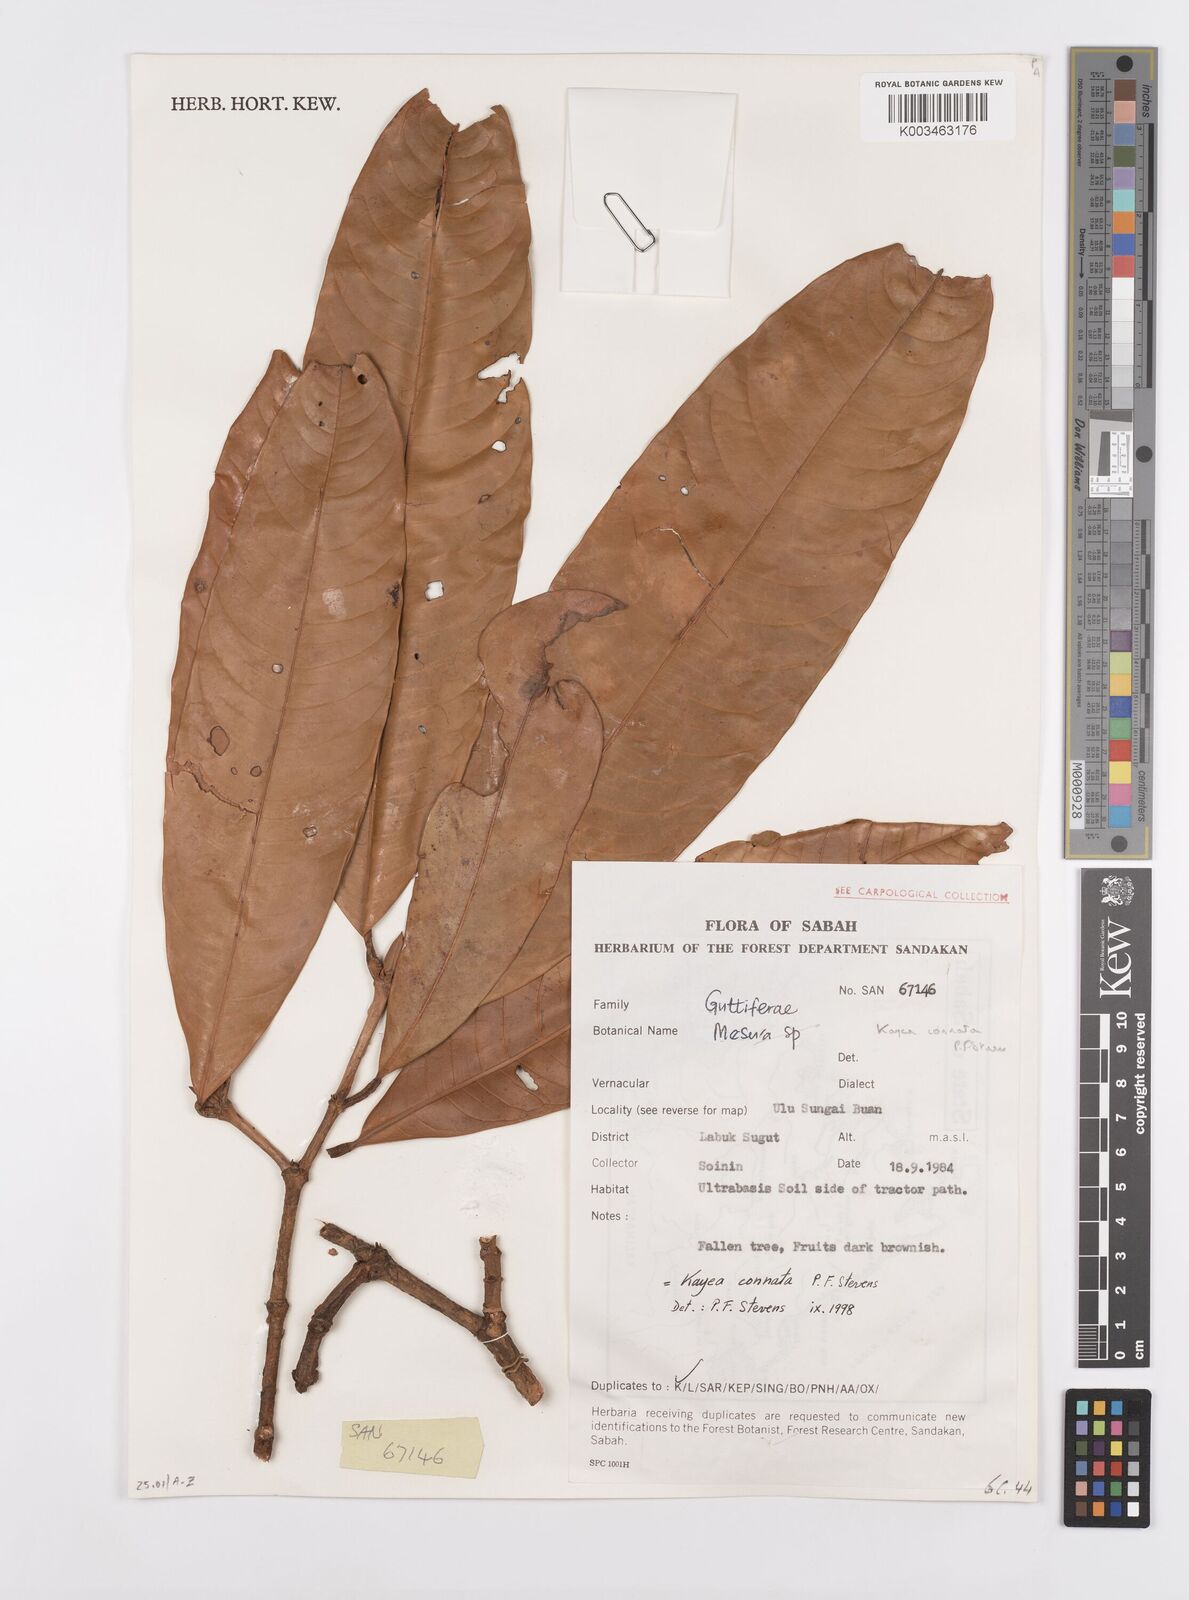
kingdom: Plantae
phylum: Tracheophyta
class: Magnoliopsida
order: Malpighiales
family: Calophyllaceae
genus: Kayea
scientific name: Kayea
